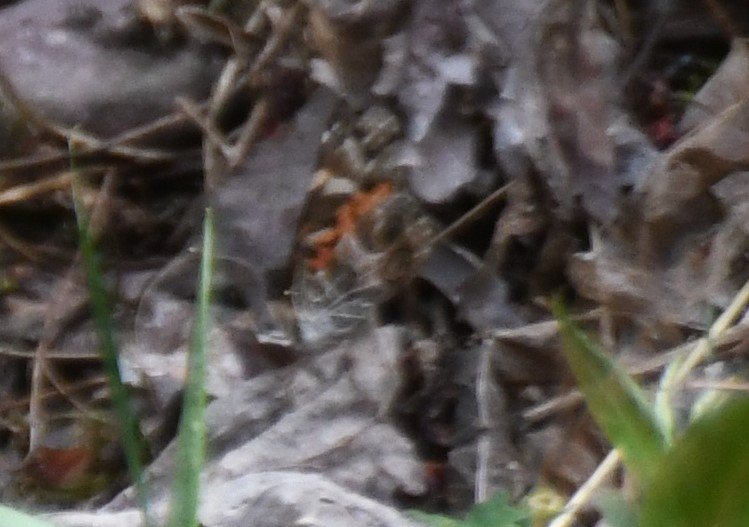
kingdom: Animalia
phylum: Arthropoda
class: Insecta
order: Lepidoptera
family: Nymphalidae
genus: Vanessa
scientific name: Vanessa virginiensis
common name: American Lady
